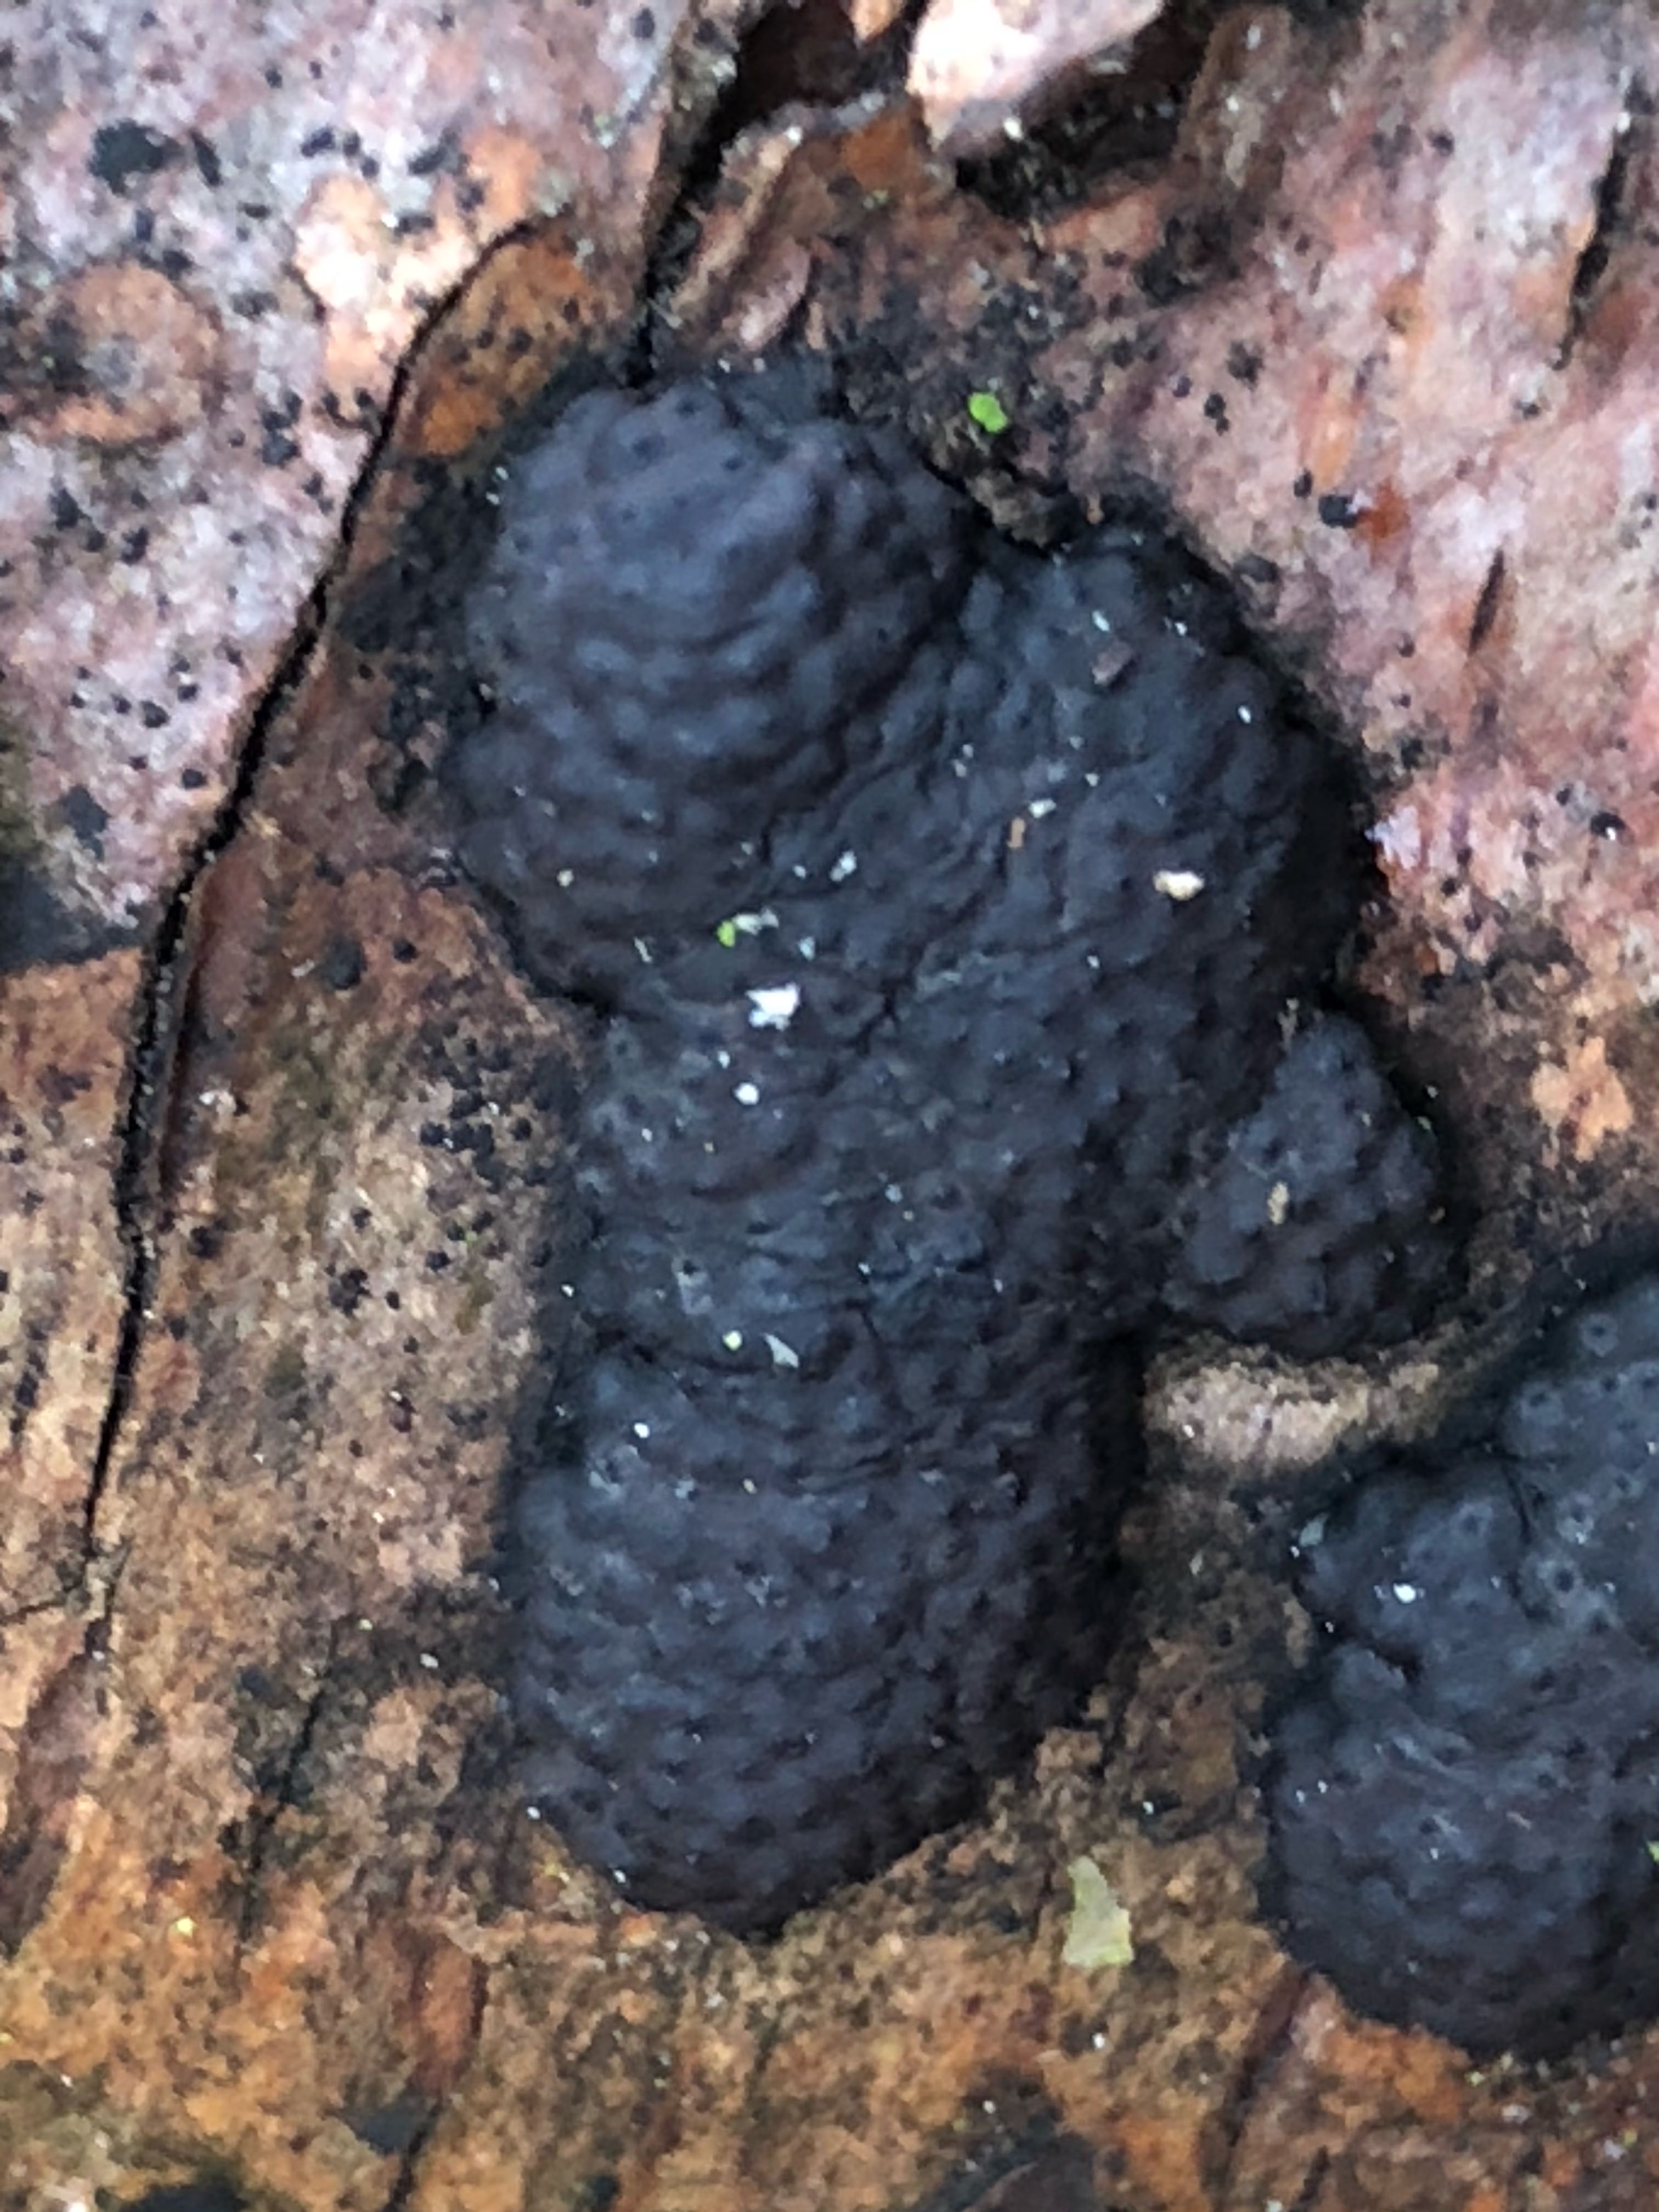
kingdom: Fungi
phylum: Ascomycota
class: Sordariomycetes
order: Xylariales
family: Hypoxylaceae
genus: Jackrogersella
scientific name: Jackrogersella multiformis
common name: foranderlig kulbær
